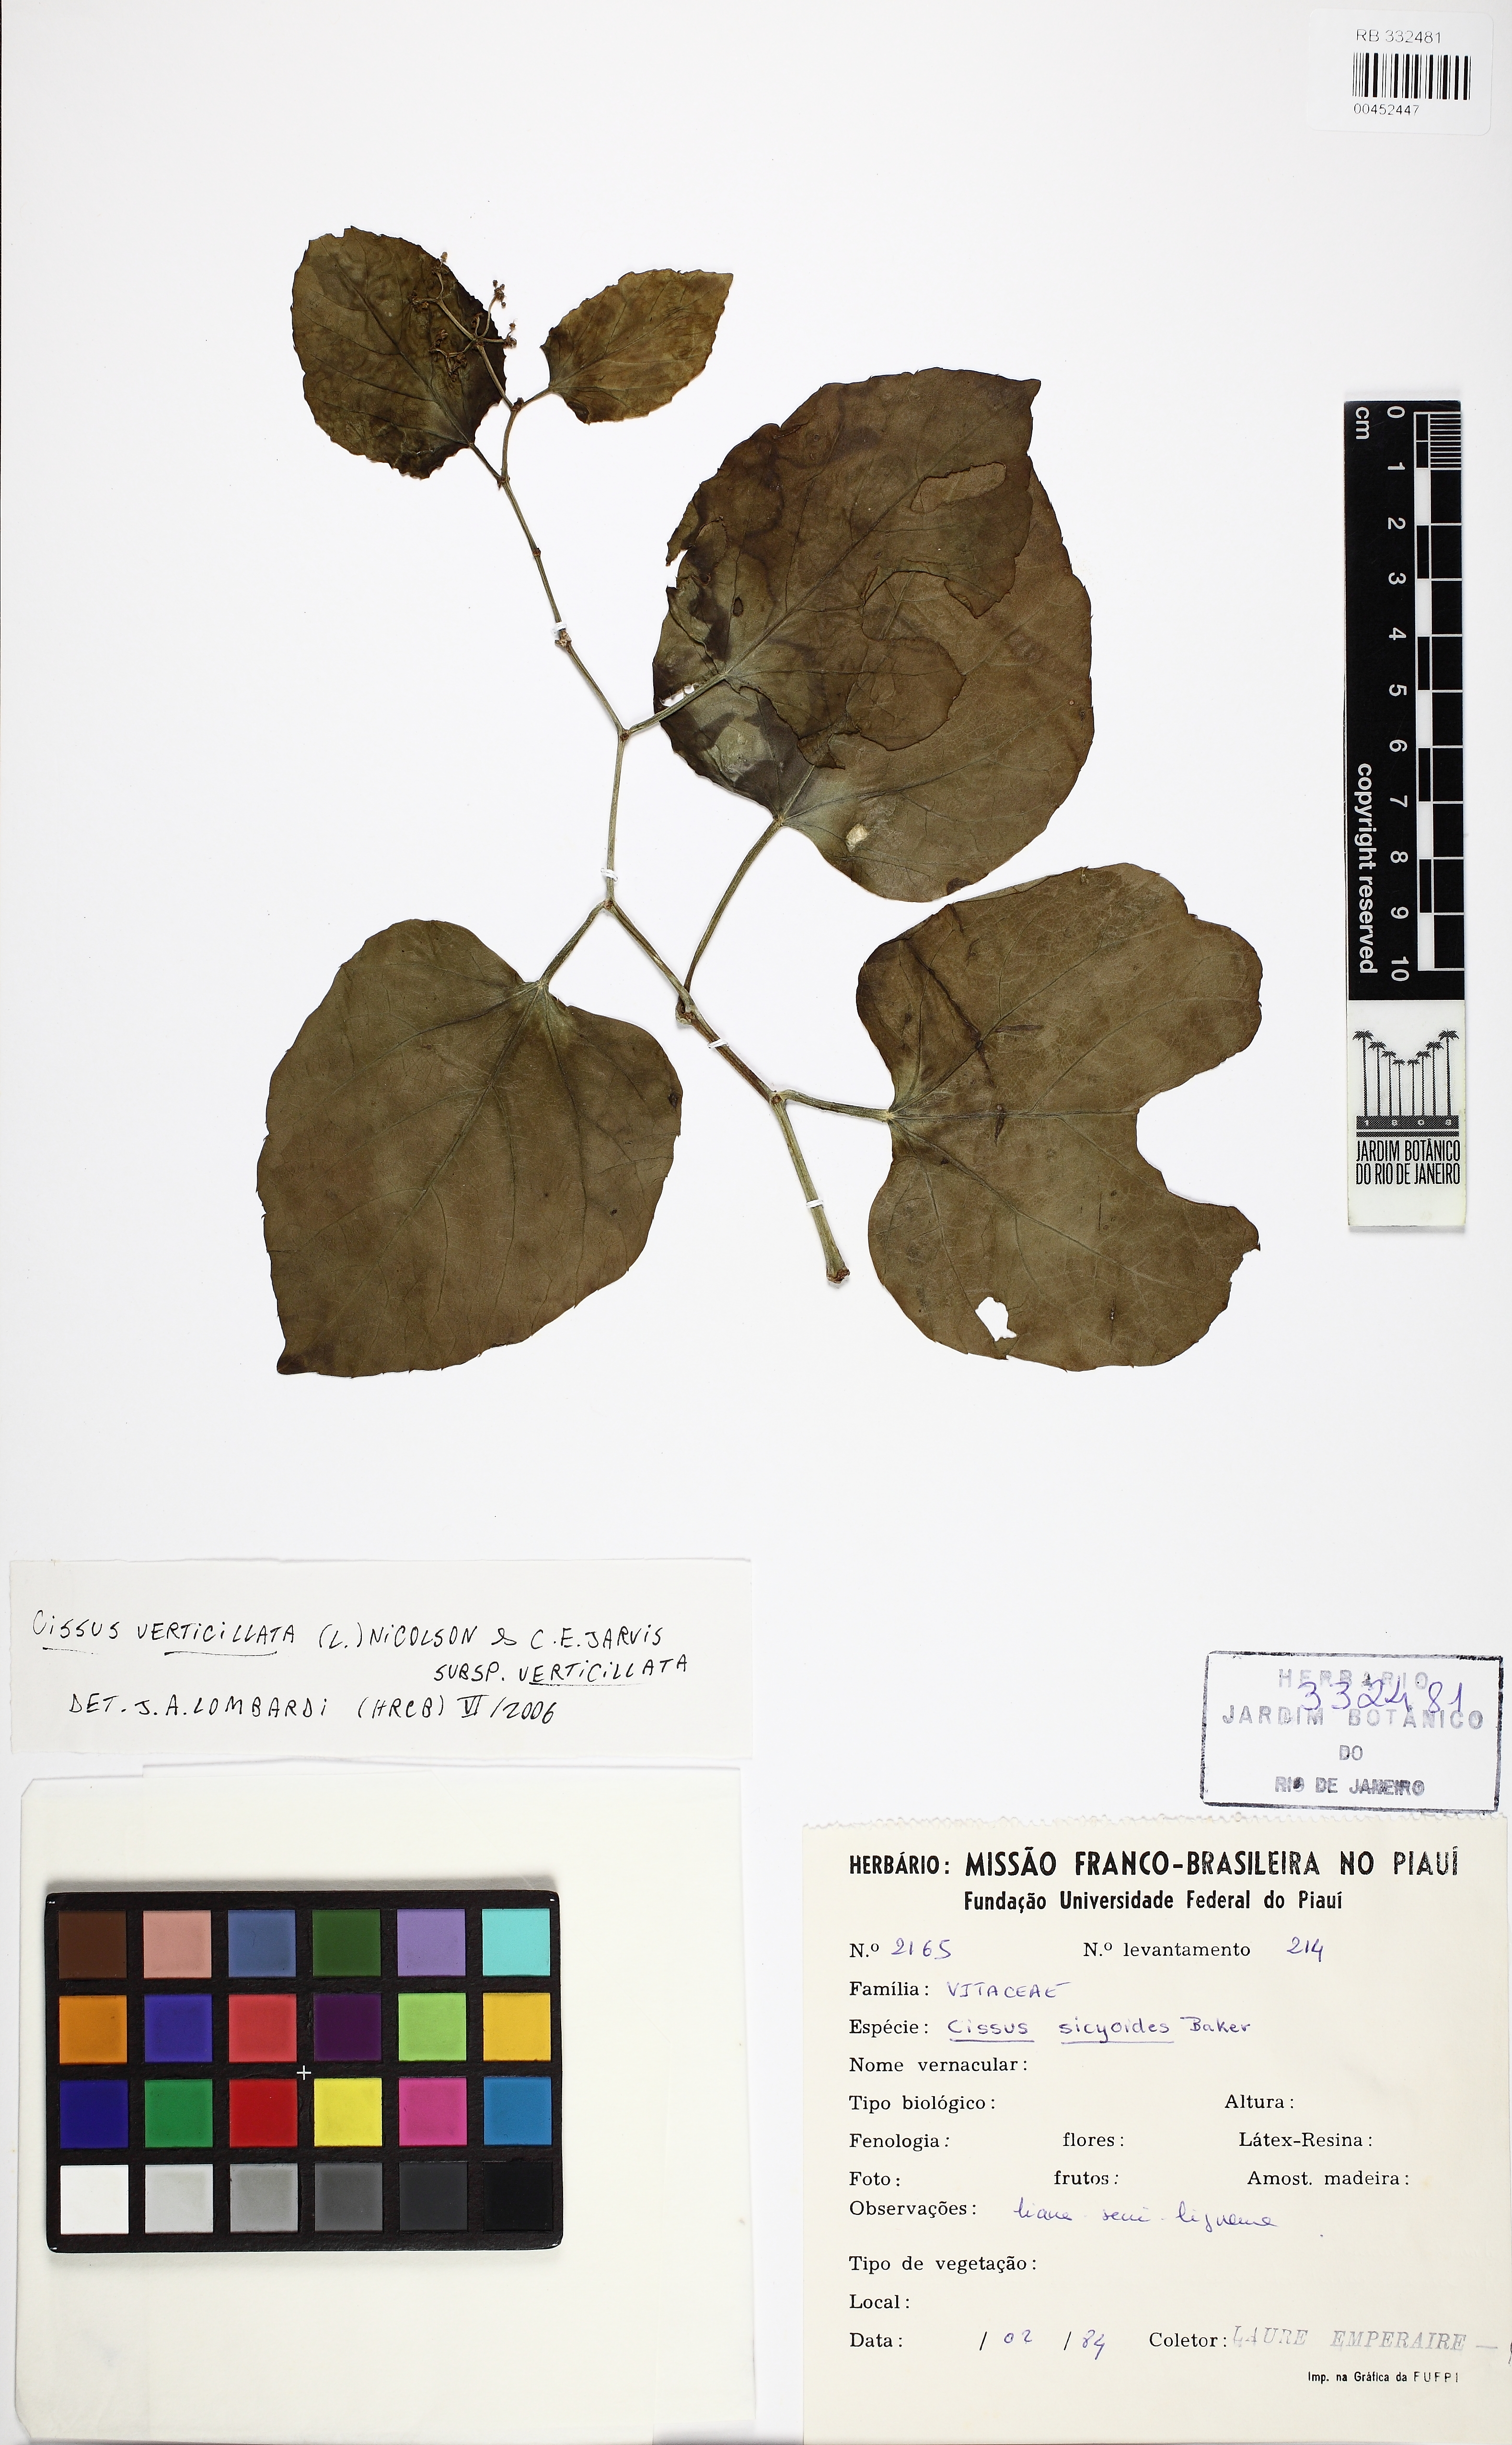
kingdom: Plantae
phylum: Tracheophyta
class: Magnoliopsida
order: Vitales
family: Vitaceae
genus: Cissus
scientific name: Cissus verticillata
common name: Princess vine
